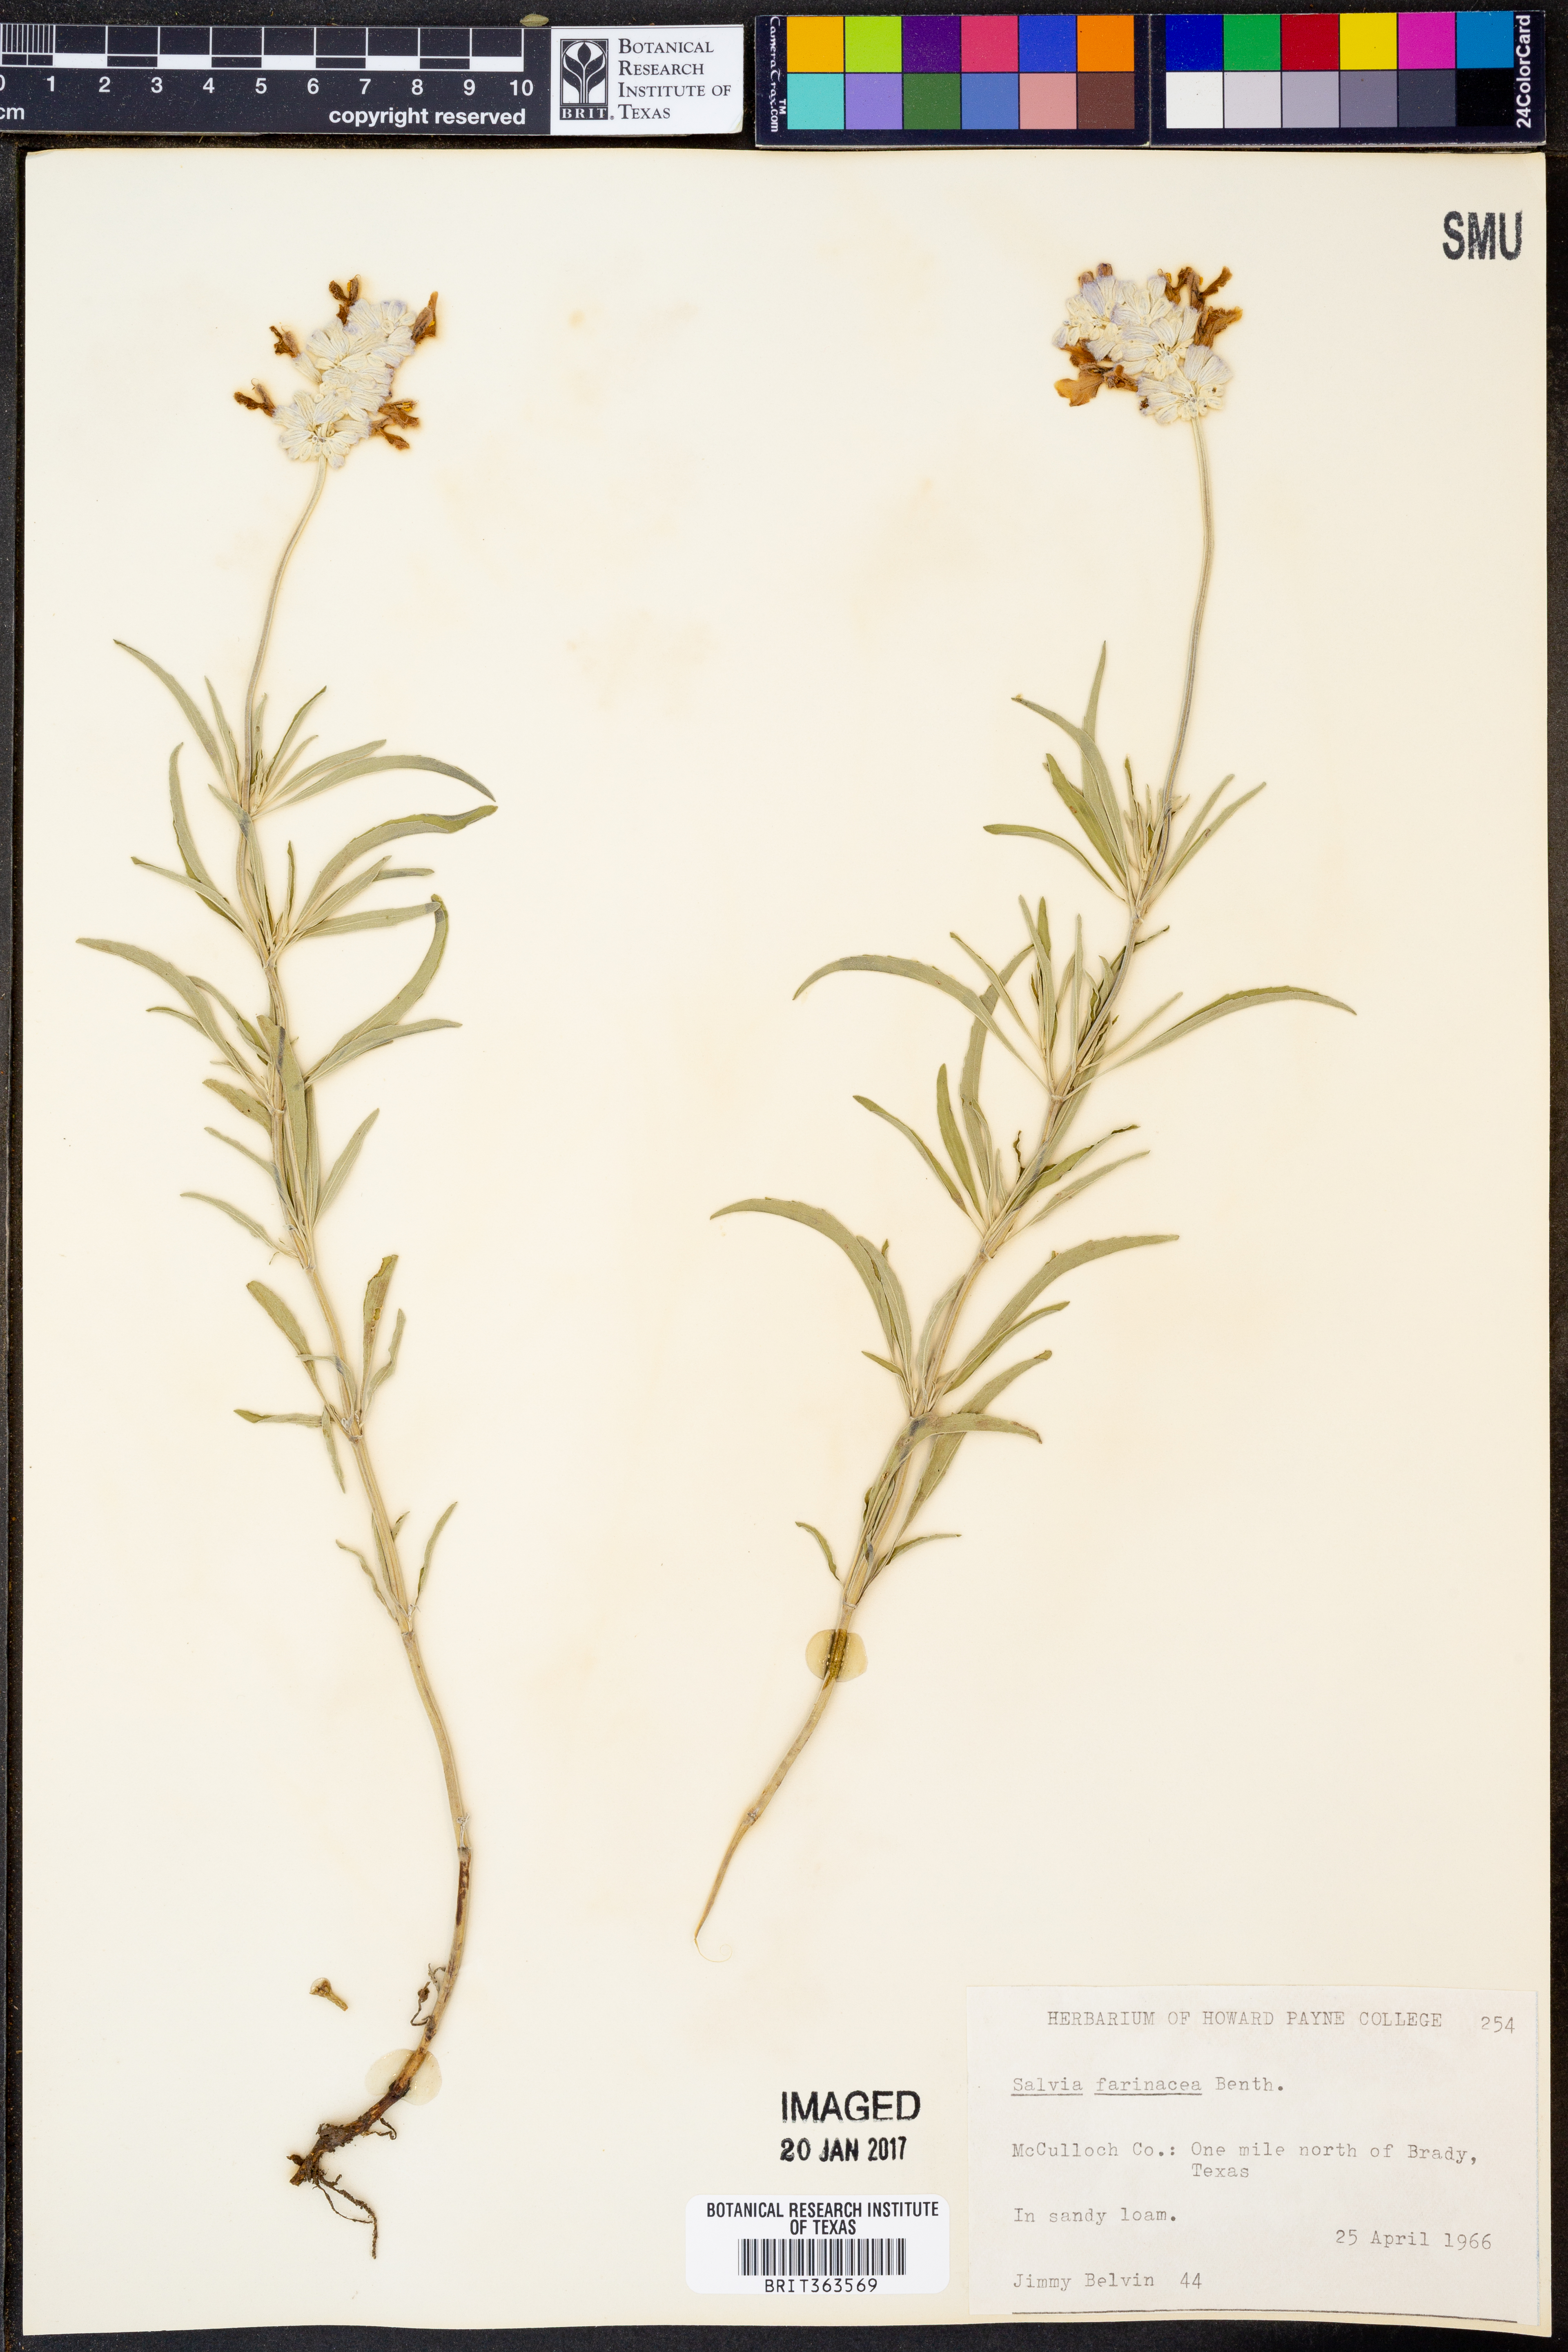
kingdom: Plantae
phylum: Tracheophyta
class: Magnoliopsida
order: Lamiales
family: Lamiaceae
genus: Salvia
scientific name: Salvia farinacea
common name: Mealy sage
